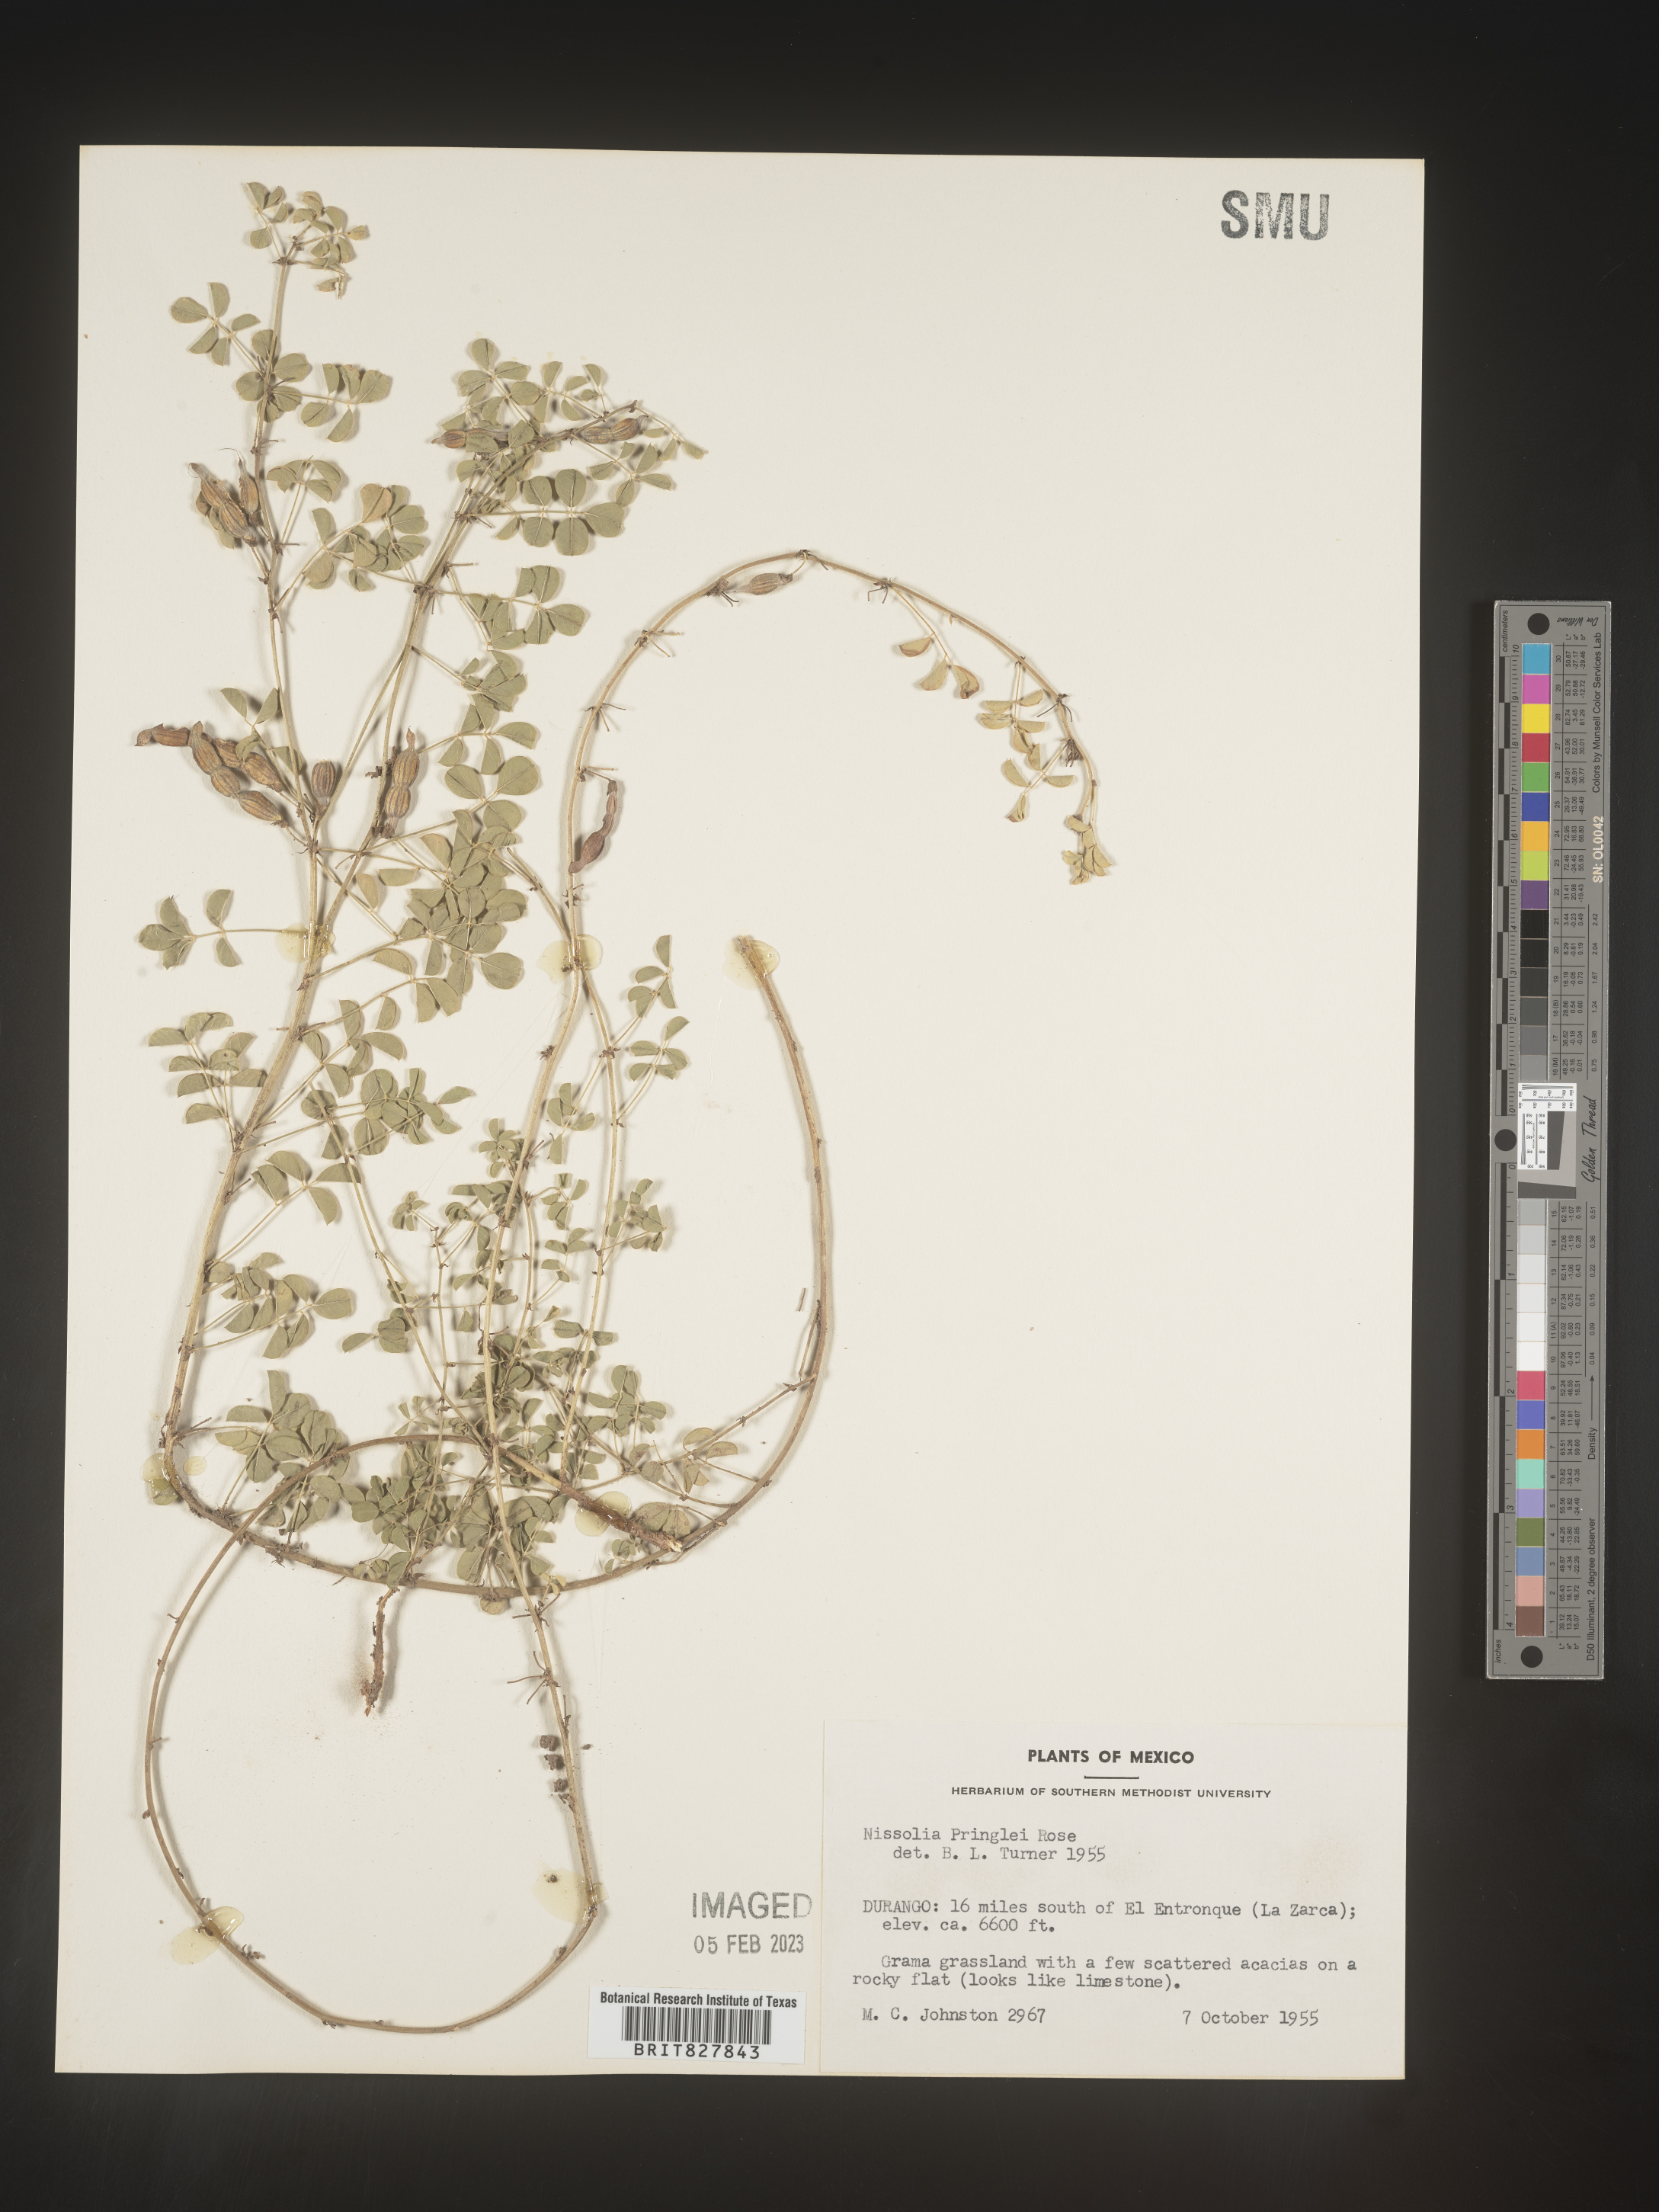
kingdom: Plantae
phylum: Tracheophyta
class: Magnoliopsida
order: Fabales
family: Fabaceae
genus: Nissolia
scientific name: Nissolia
